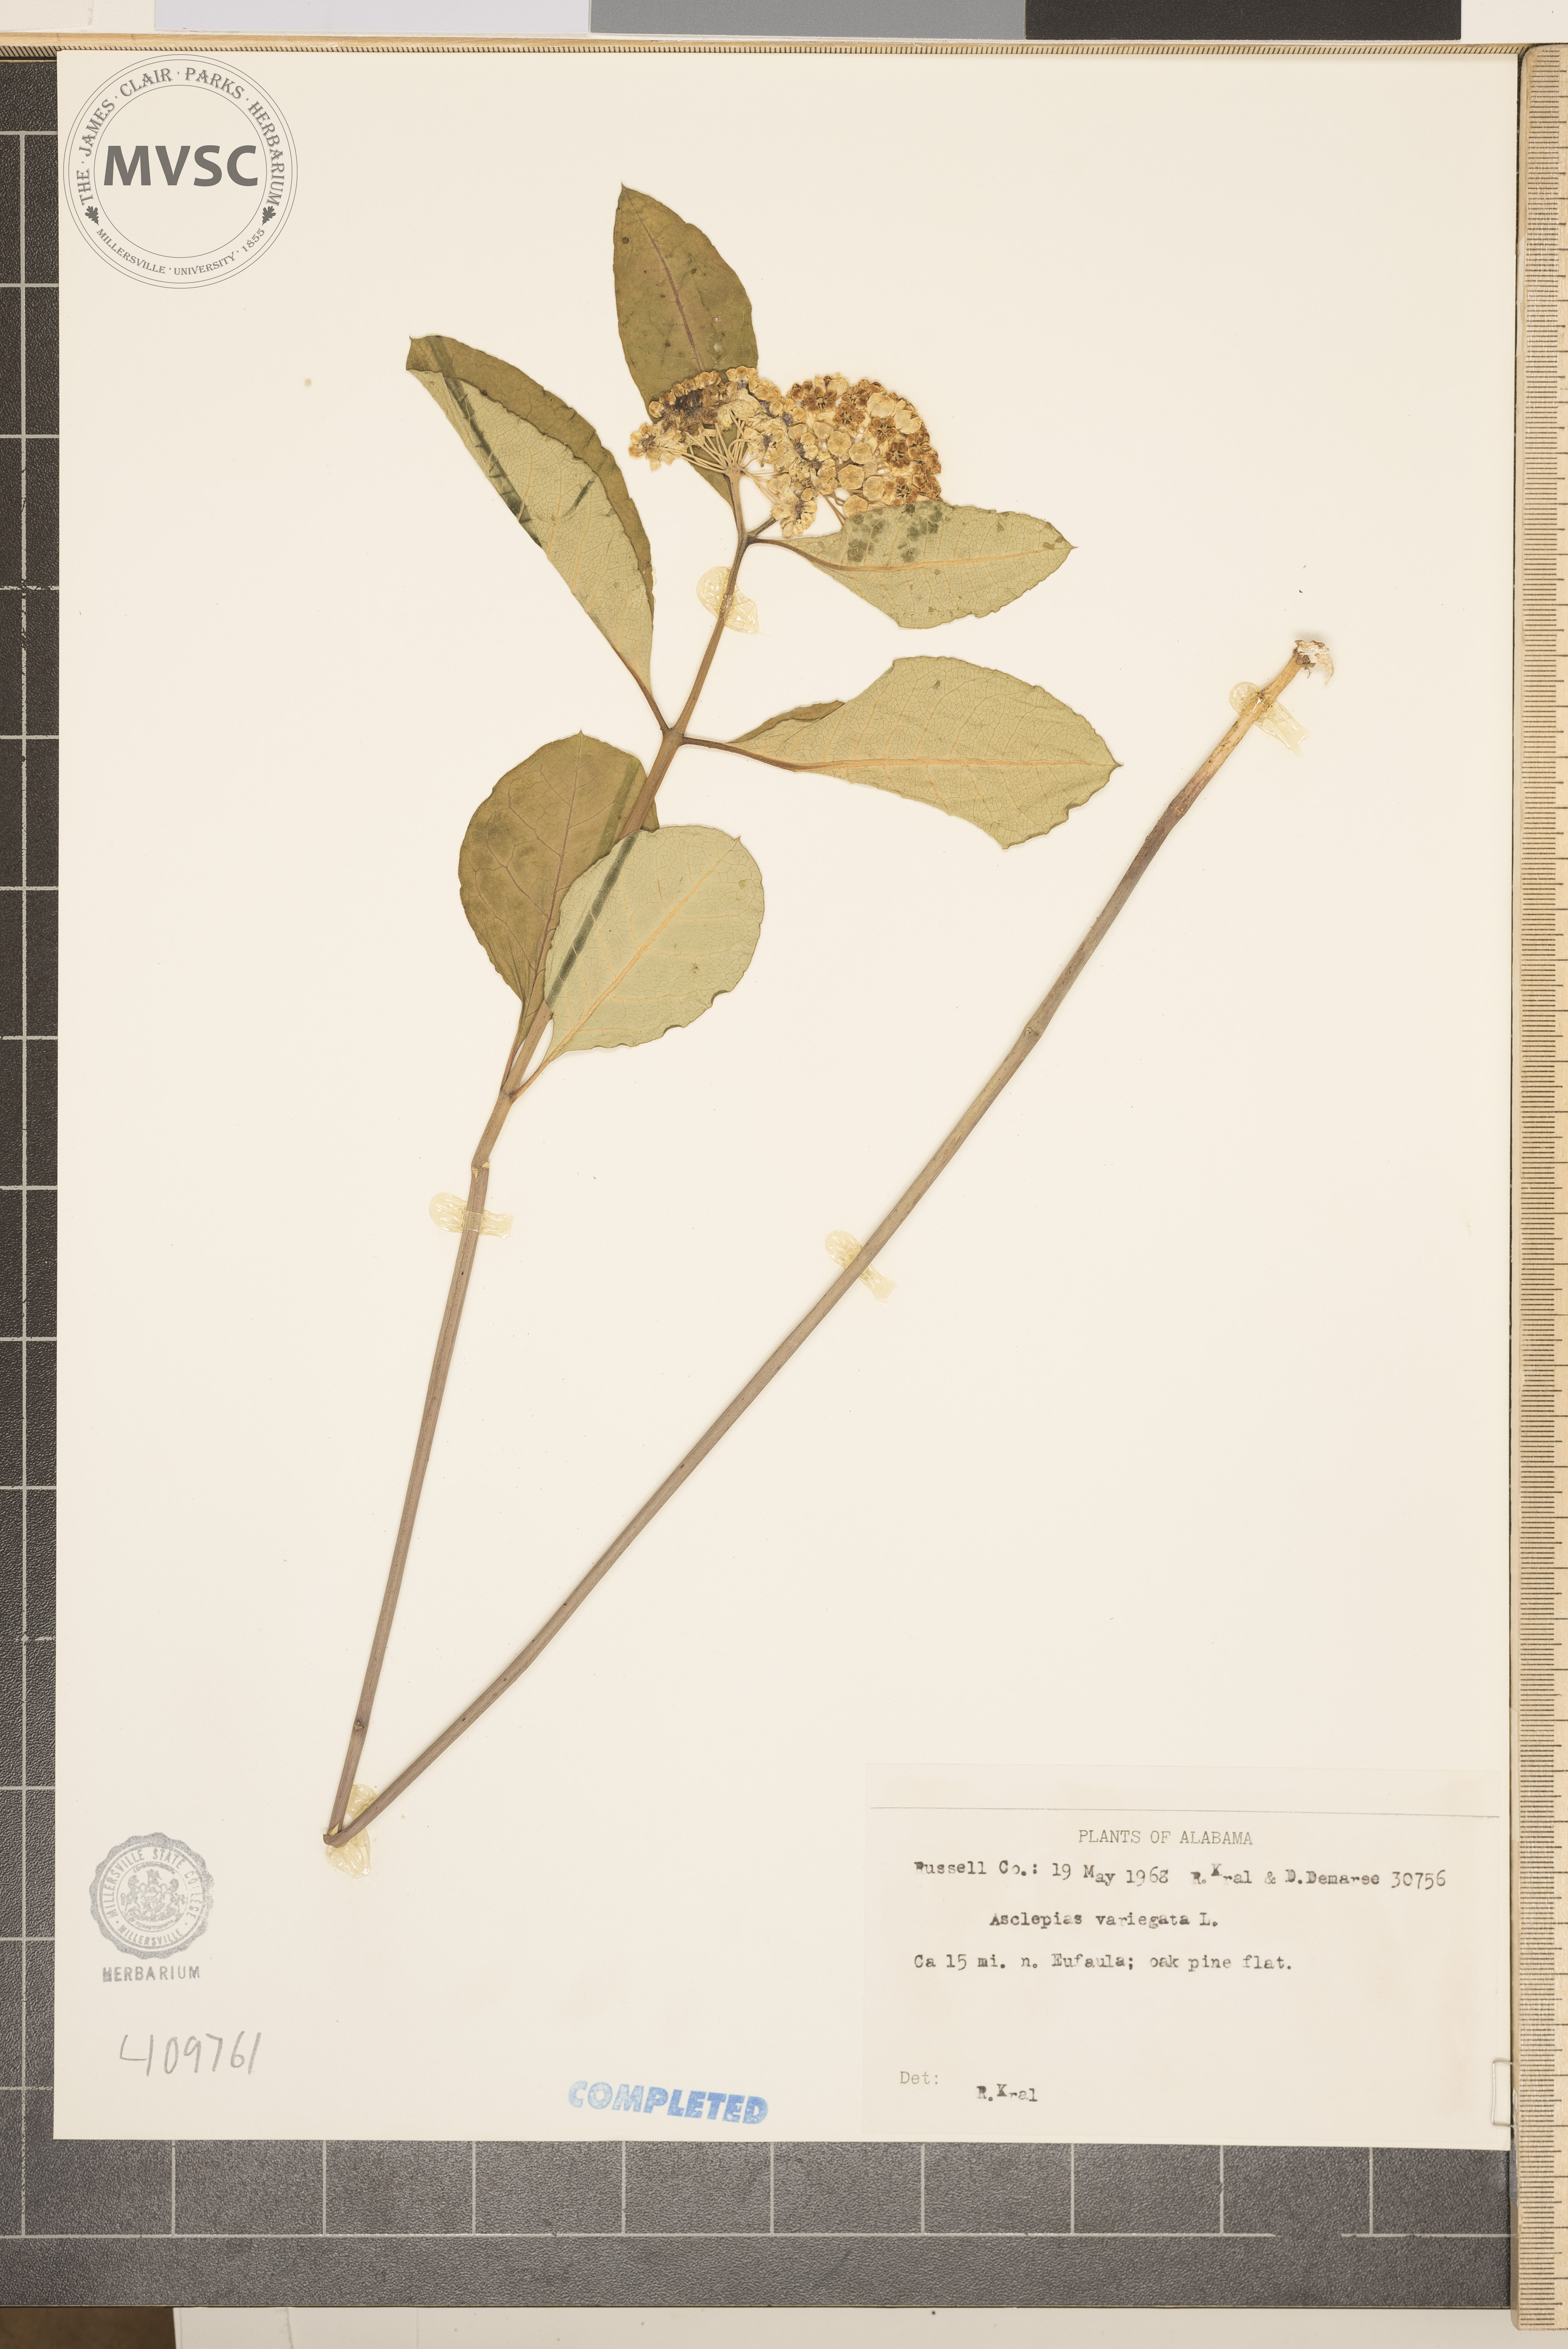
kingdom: Plantae
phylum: Tracheophyta
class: Magnoliopsida
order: Gentianales
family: Apocynaceae
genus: Asclepias
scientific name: Asclepias variegata
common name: Variegated milkweed
